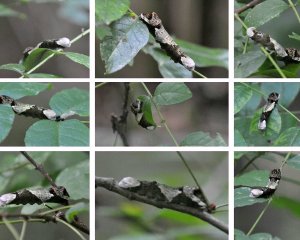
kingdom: Animalia
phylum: Arthropoda
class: Insecta
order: Lepidoptera
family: Papilionidae
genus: Papilio
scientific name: Papilio cresphontes
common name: Eastern Giant Swallowtail
